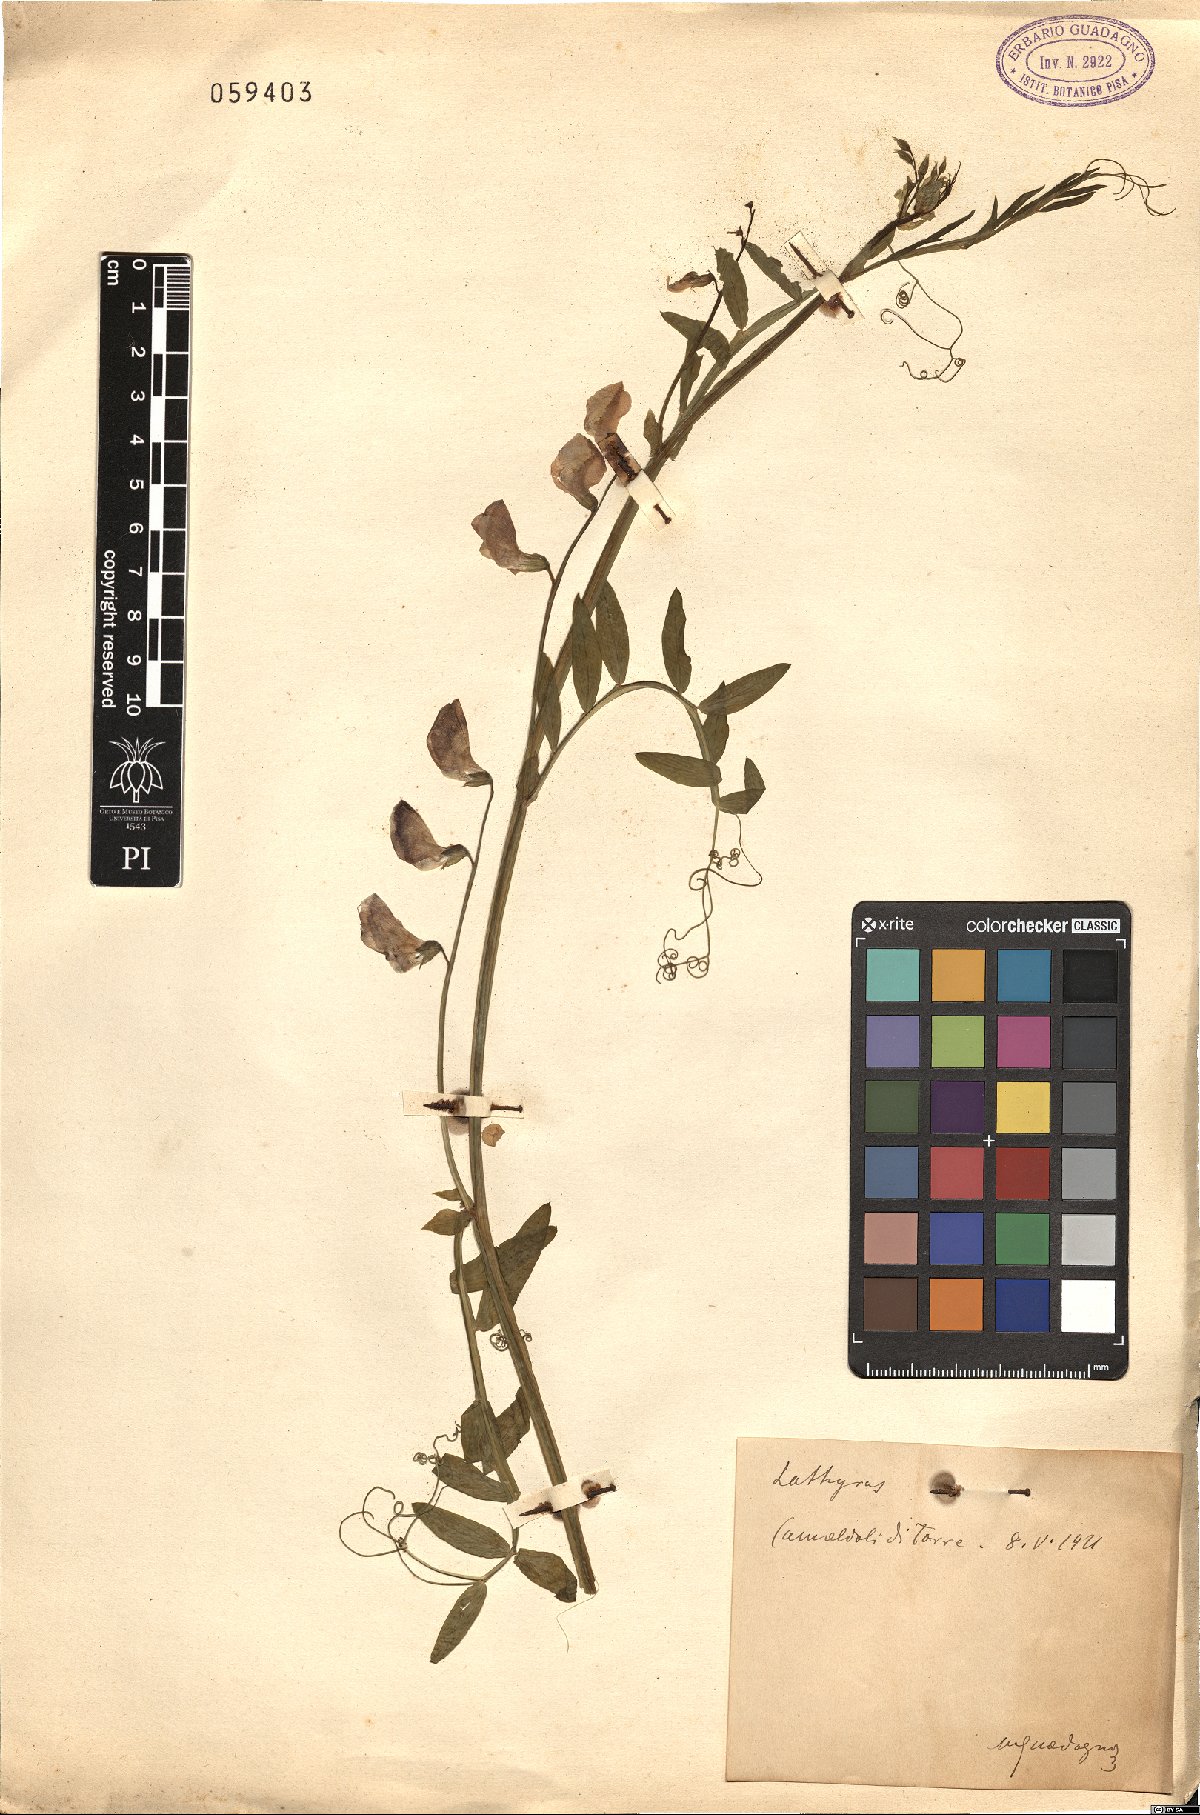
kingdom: Plantae
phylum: Tracheophyta
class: Magnoliopsida
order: Fabales
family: Fabaceae
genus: Lathyrus
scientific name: Lathyrus
